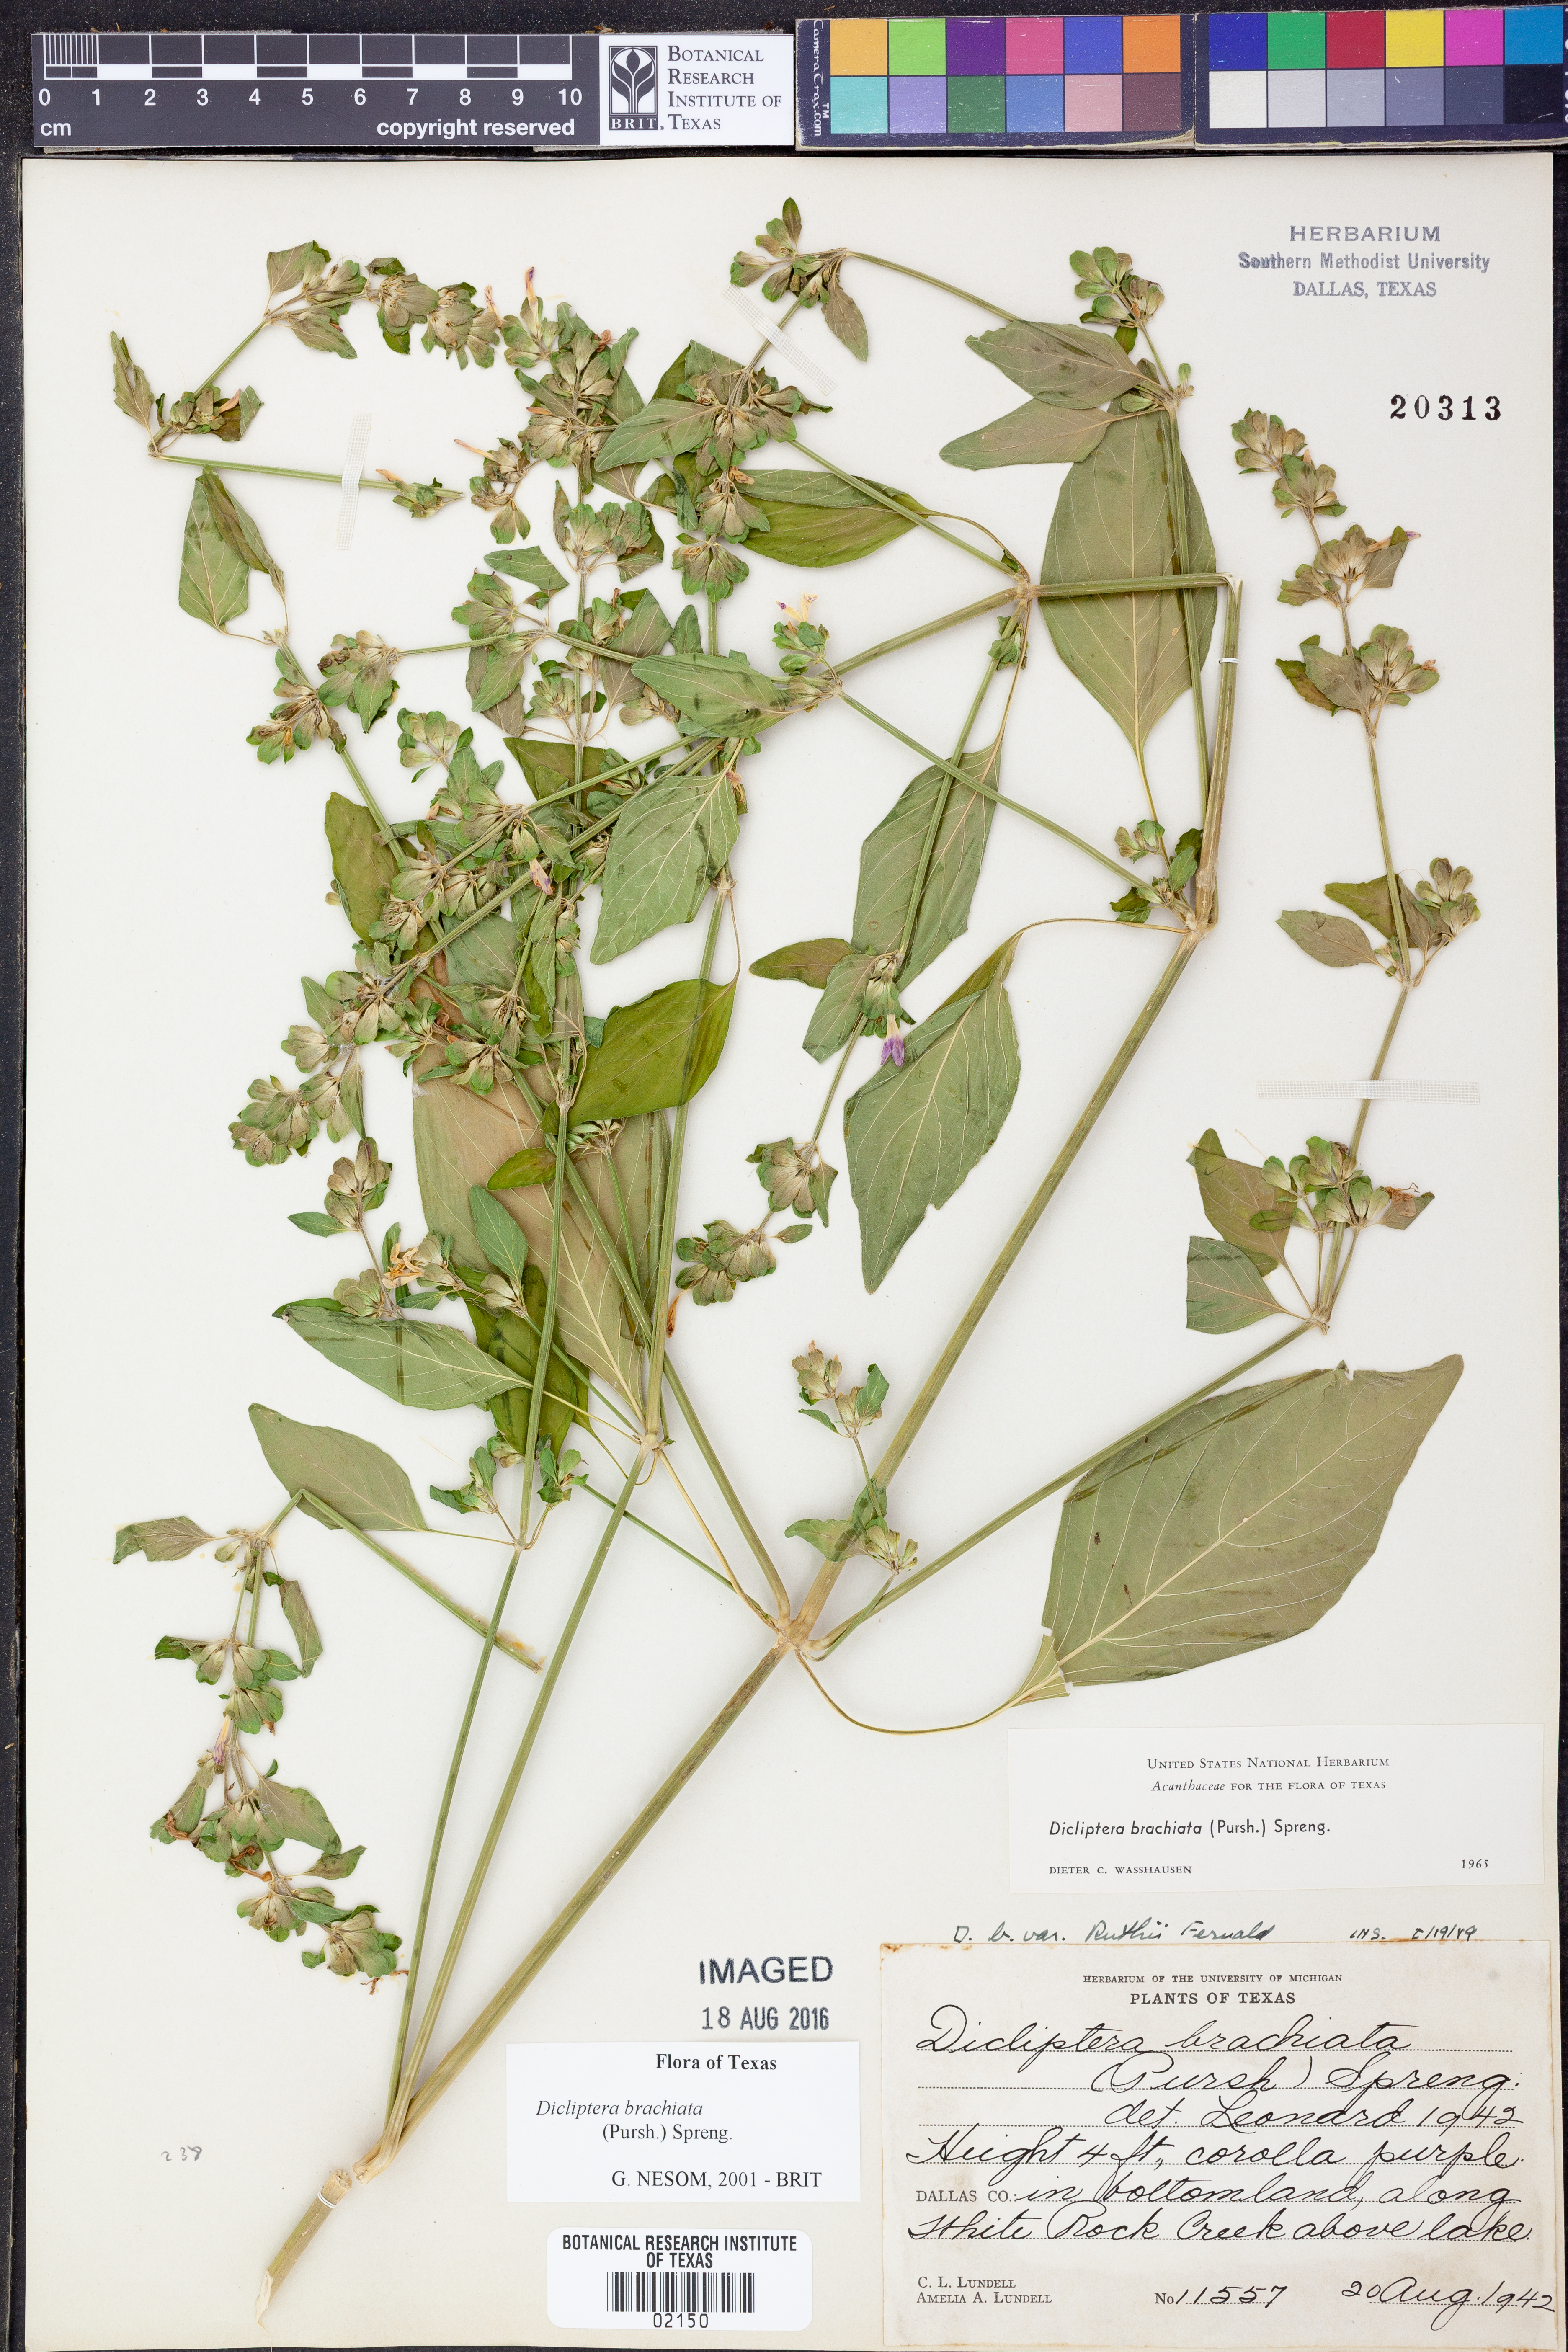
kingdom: Plantae
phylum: Tracheophyta
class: Magnoliopsida
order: Lamiales
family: Acanthaceae
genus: Dicliptera
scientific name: Dicliptera brachiata
